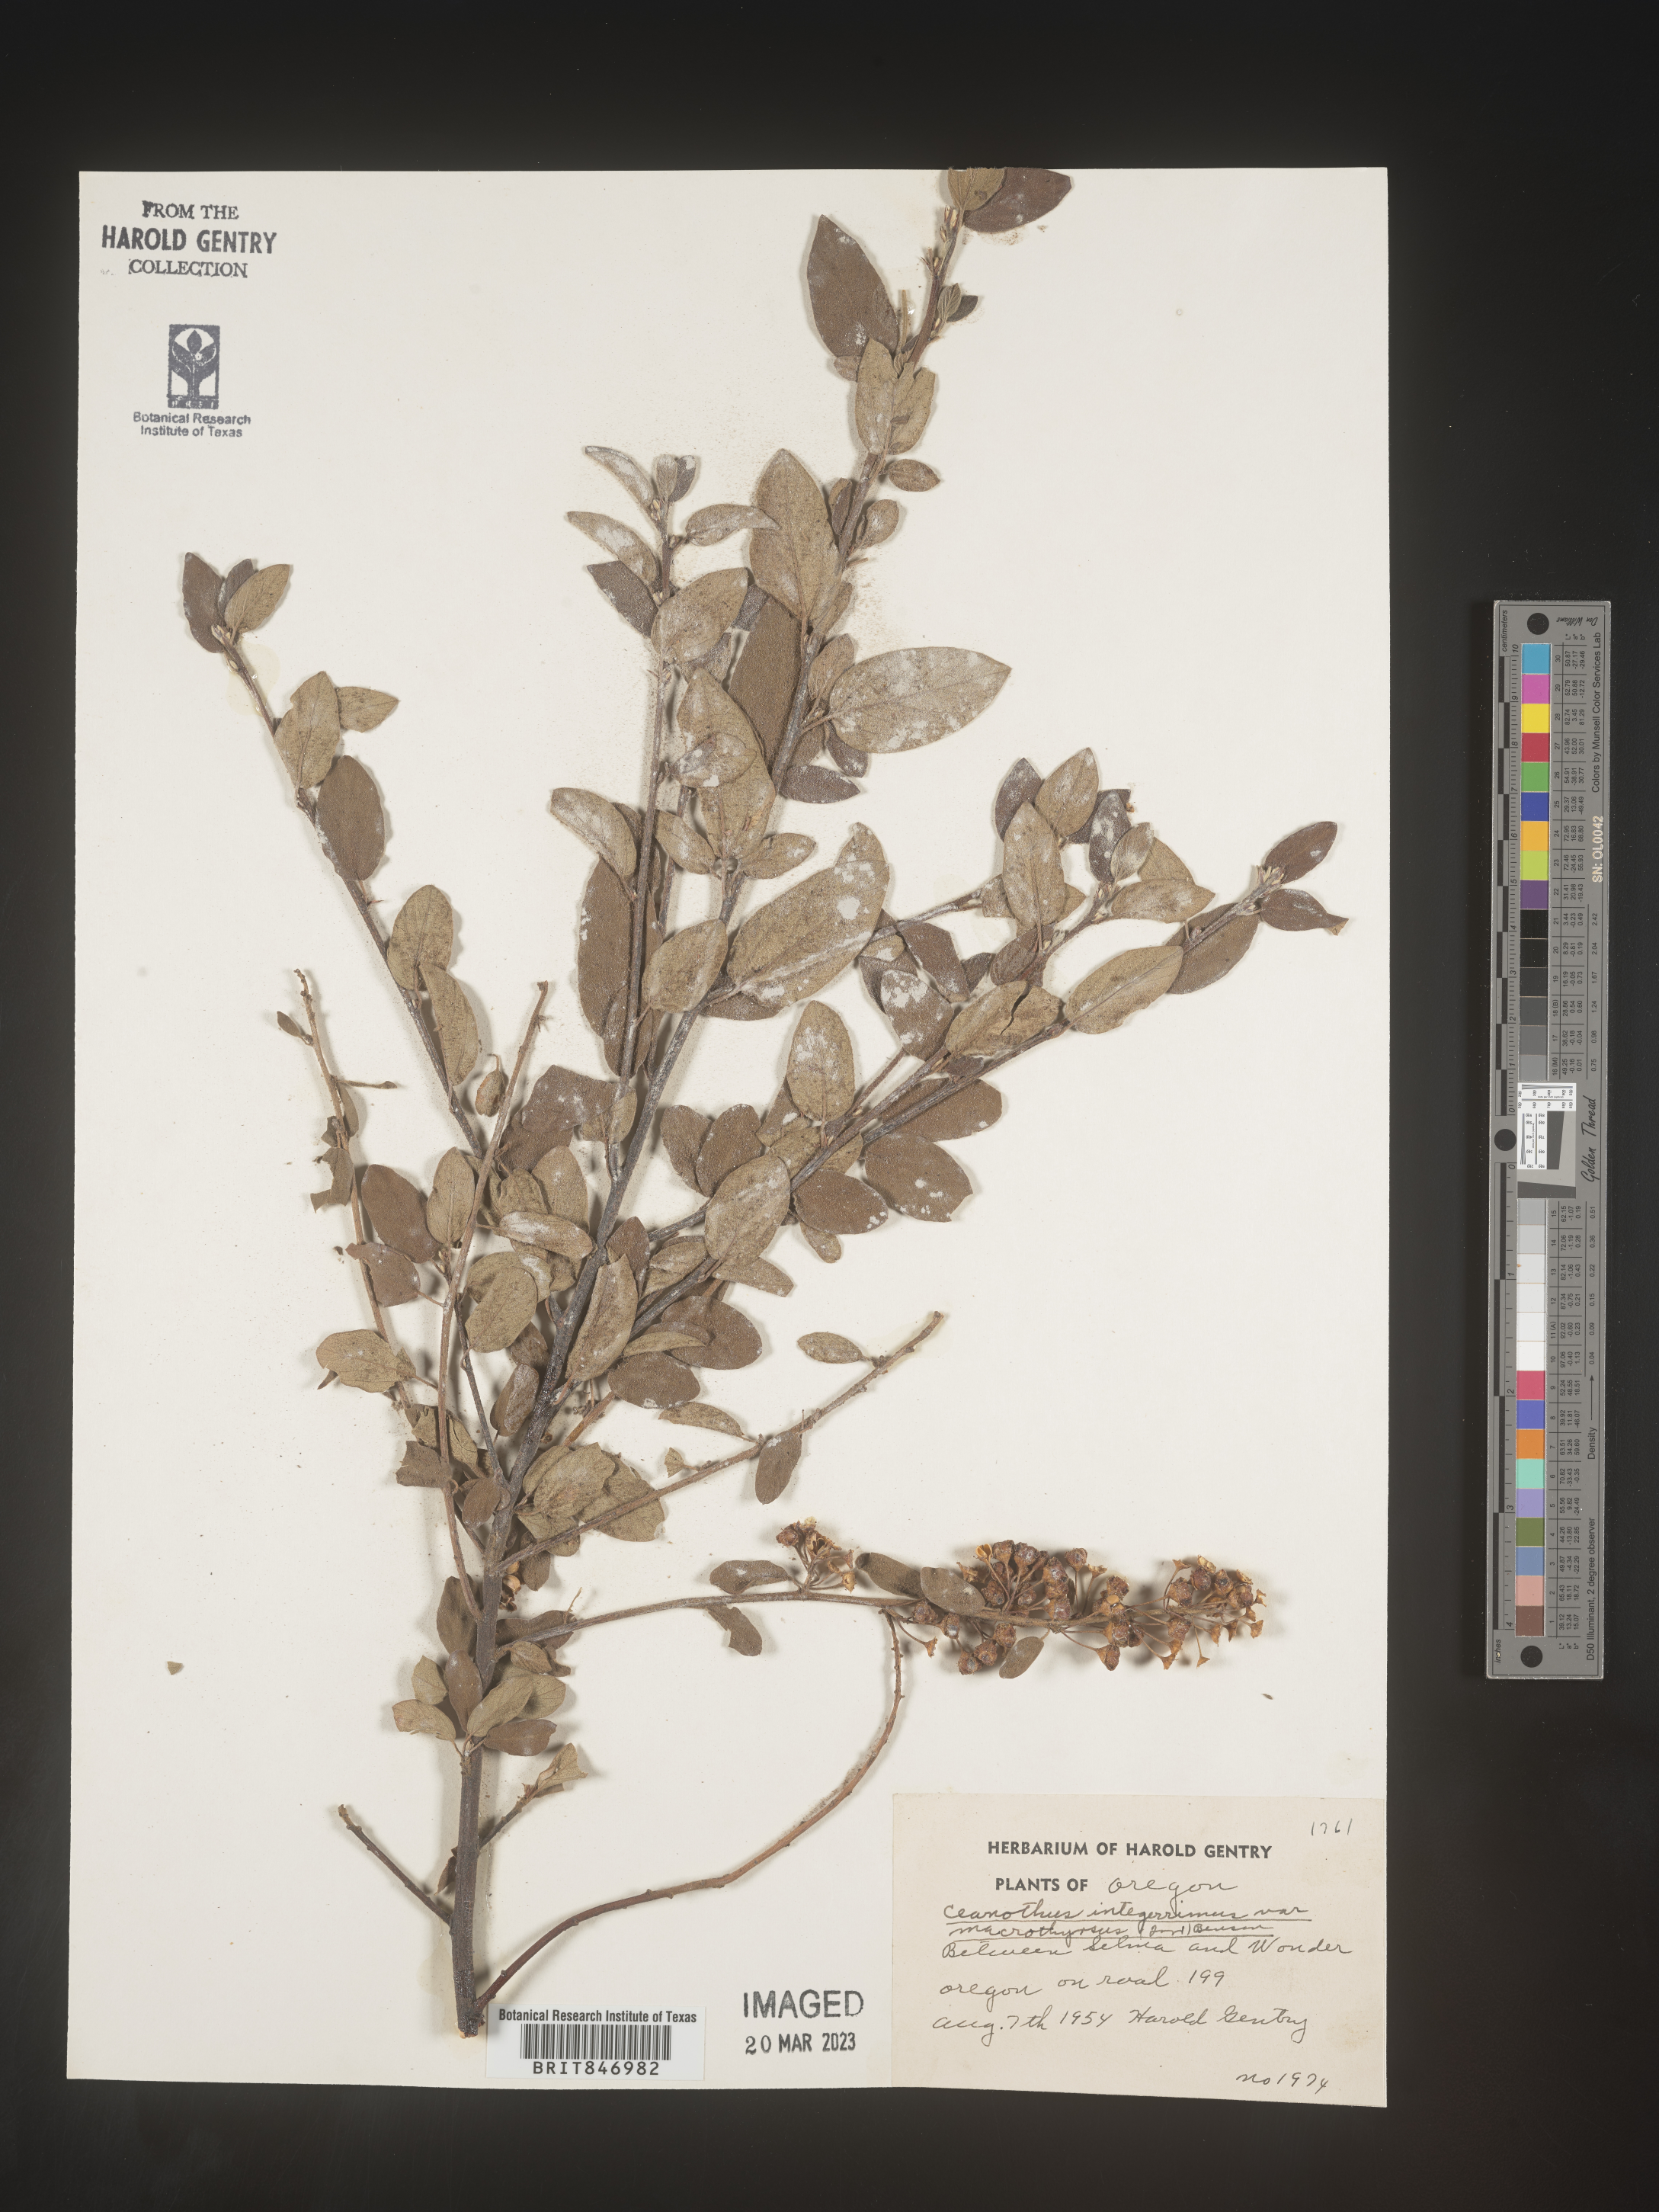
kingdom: Plantae
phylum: Tracheophyta
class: Magnoliopsida
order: Rosales
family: Rhamnaceae
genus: Ceanothus
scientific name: Ceanothus integerrimus
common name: Deerbrush ceanothus
